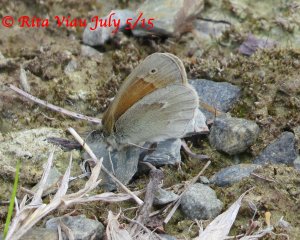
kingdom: Animalia
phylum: Arthropoda
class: Insecta
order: Lepidoptera
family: Nymphalidae
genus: Coenonympha
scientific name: Coenonympha tullia
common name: Large Heath
